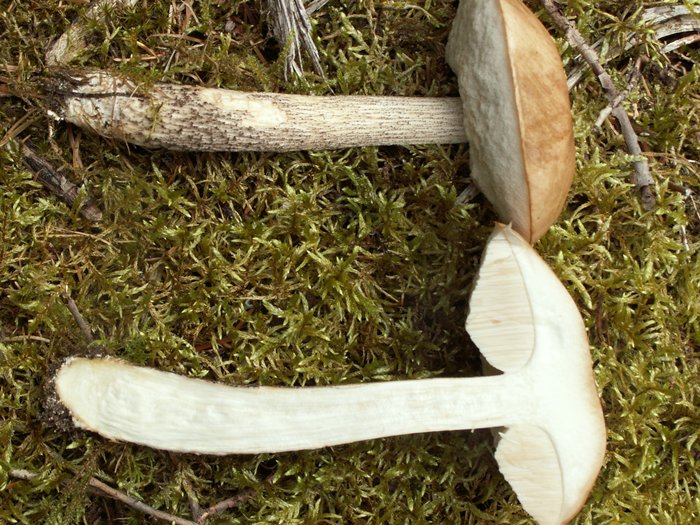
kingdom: Fungi
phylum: Basidiomycota
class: Agaricomycetes
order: Boletales
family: Boletaceae
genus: Leccinum
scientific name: Leccinum scabrum
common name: brun skælrørhat
